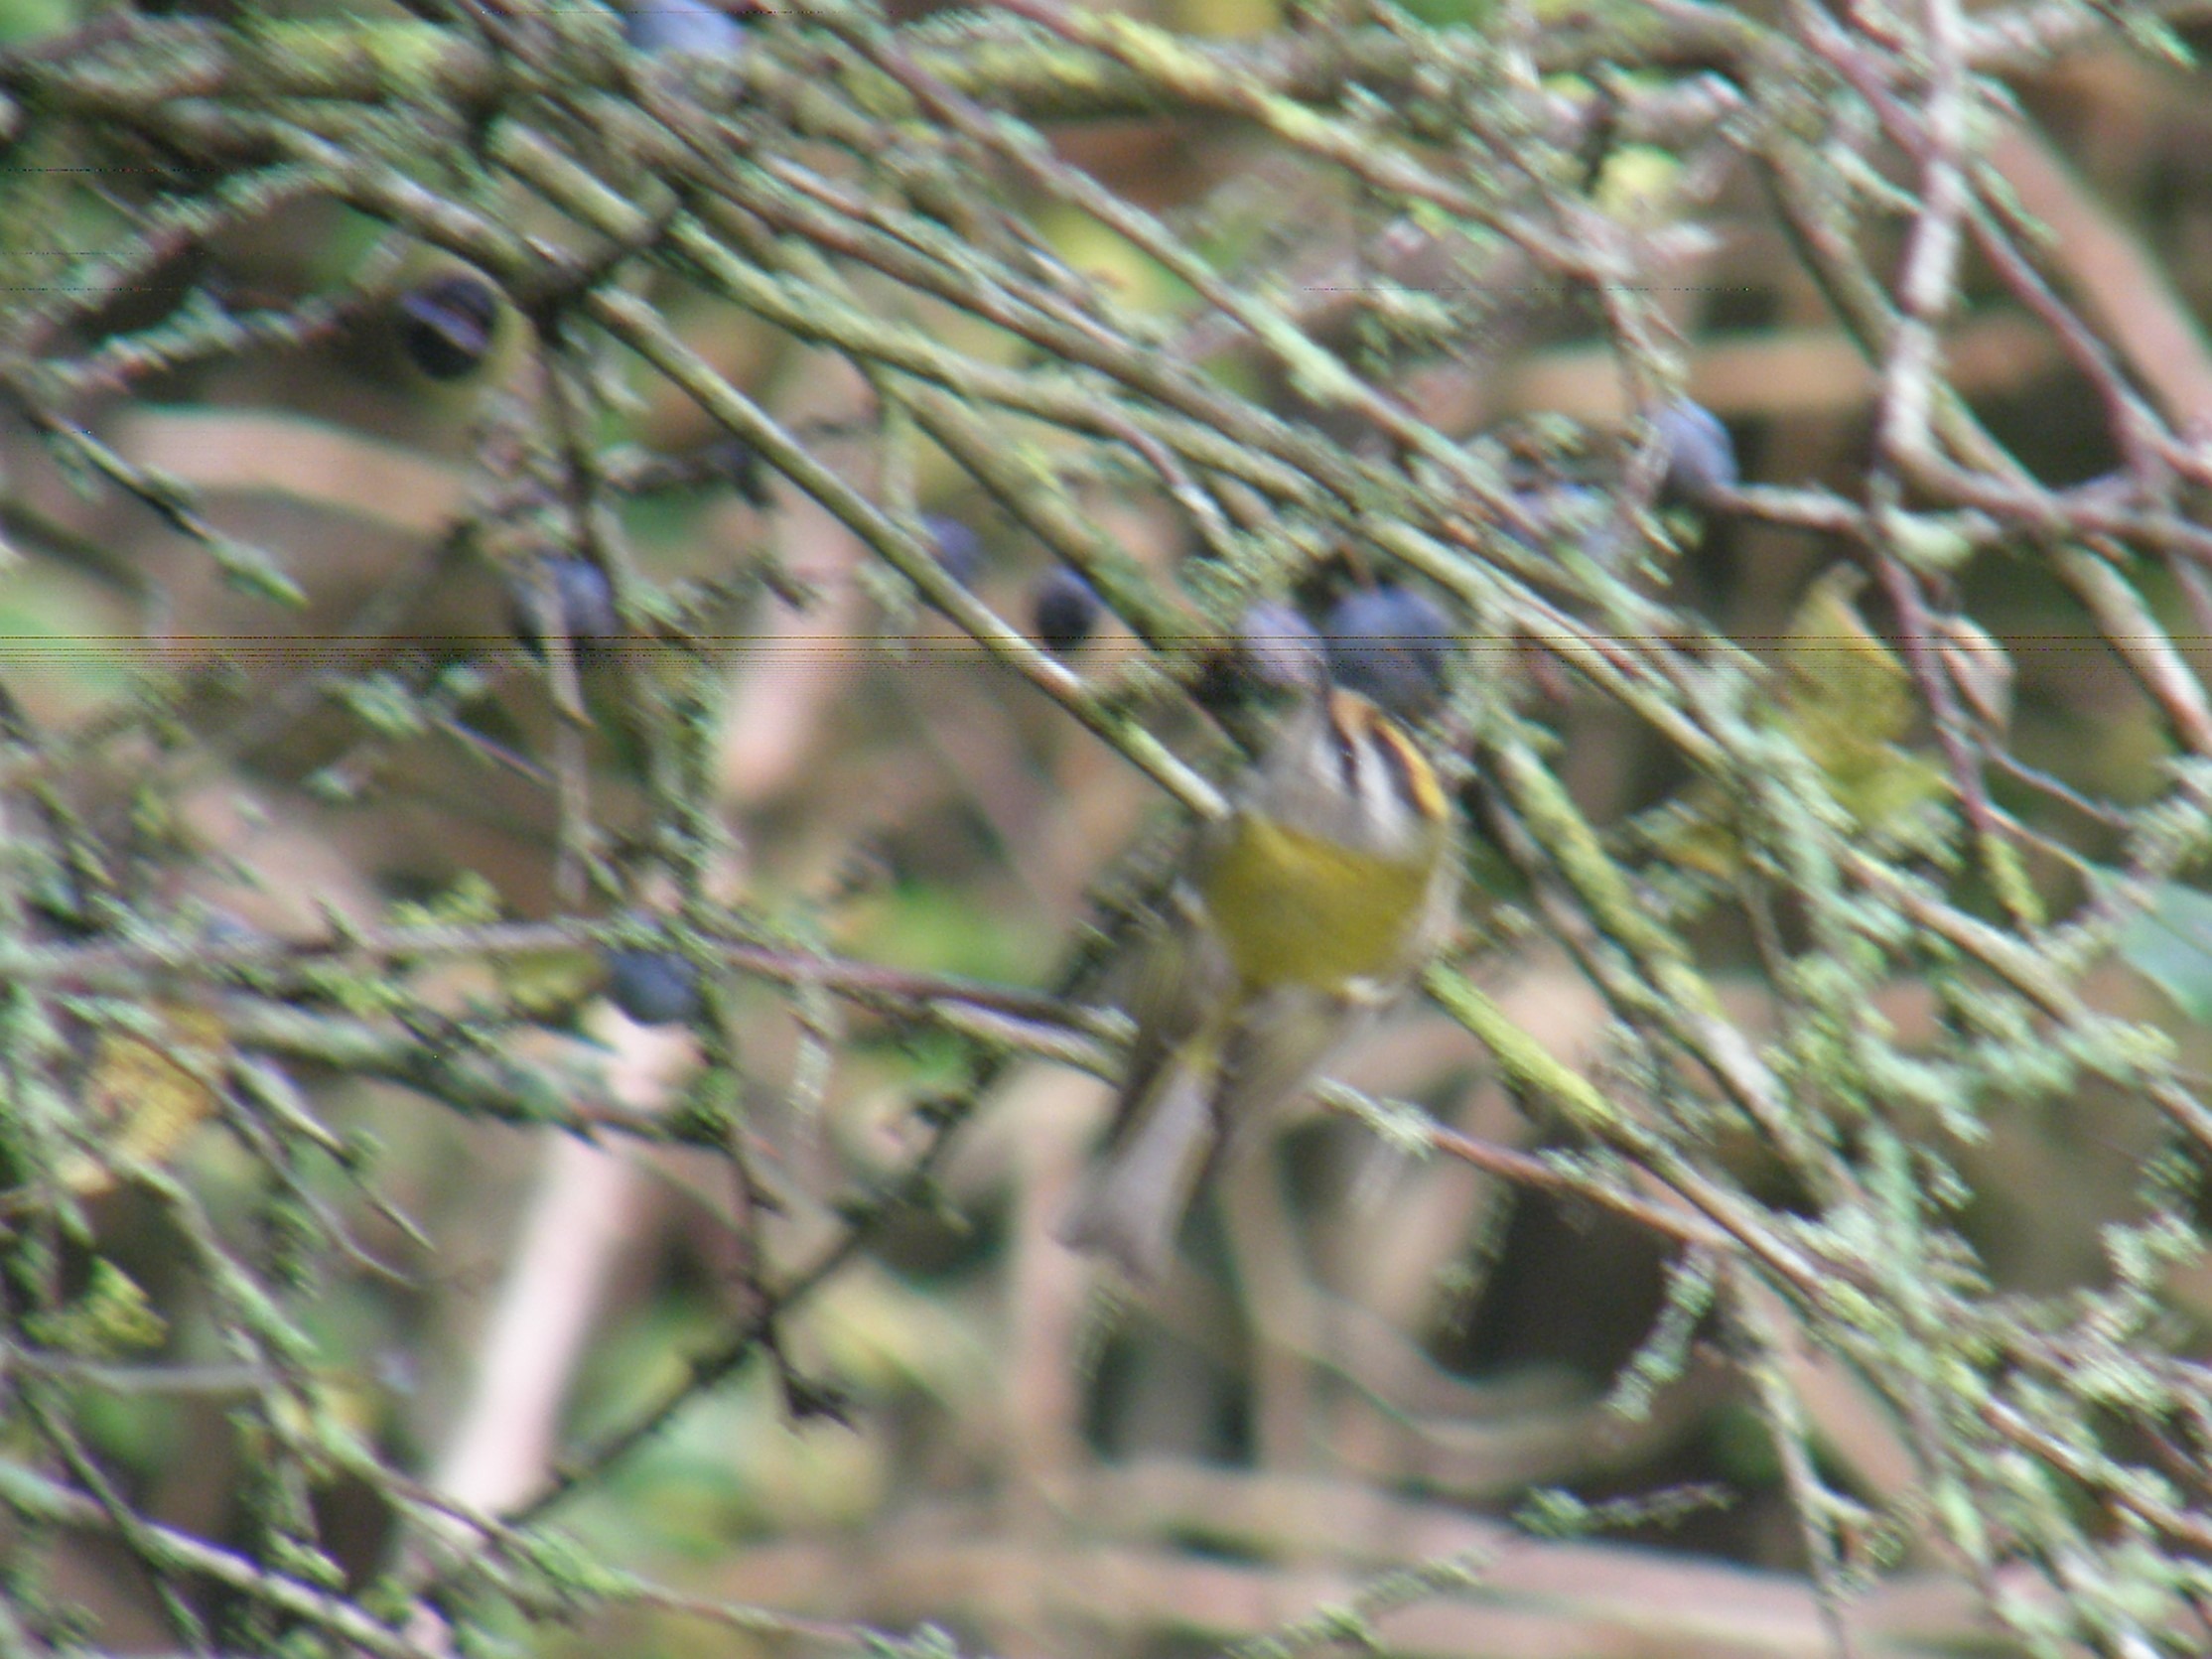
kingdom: Animalia
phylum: Chordata
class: Aves
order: Passeriformes
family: Regulidae
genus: Regulus
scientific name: Regulus ignicapilla
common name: Rødtoppet fuglekonge
